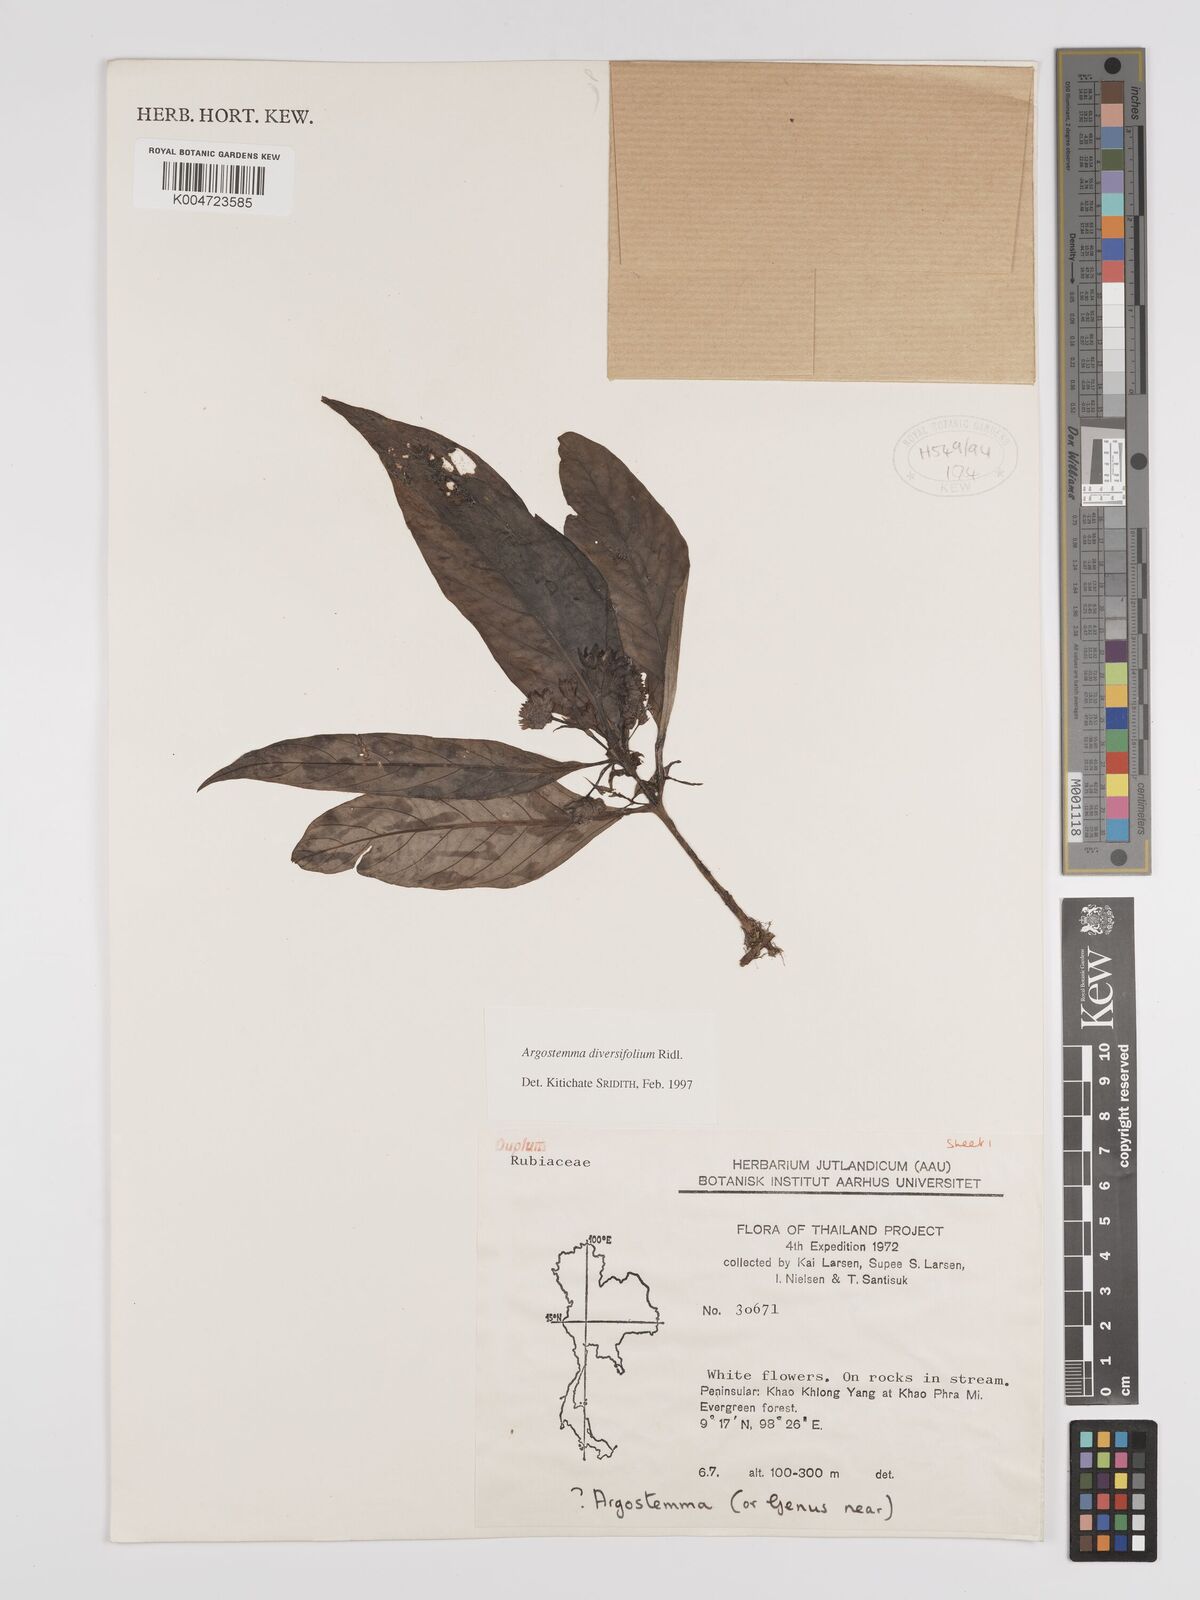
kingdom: Plantae
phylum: Tracheophyta
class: Magnoliopsida
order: Gentianales
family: Rubiaceae
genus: Argostemma
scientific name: Argostemma diversifolium
